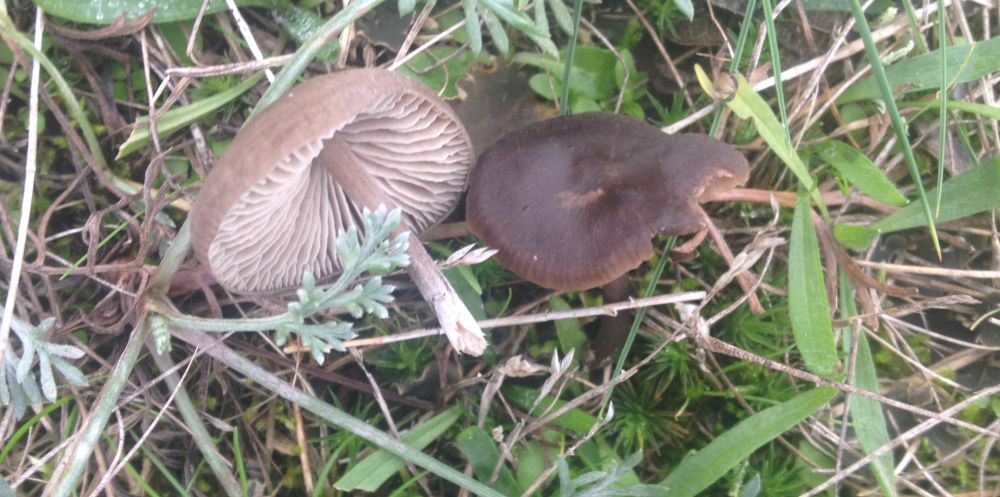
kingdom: Fungi
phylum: Basidiomycota
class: Agaricomycetes
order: Agaricales
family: Entolomataceae
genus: Entoloma
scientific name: Entoloma sericeum
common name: silkeglinsende rødblad
